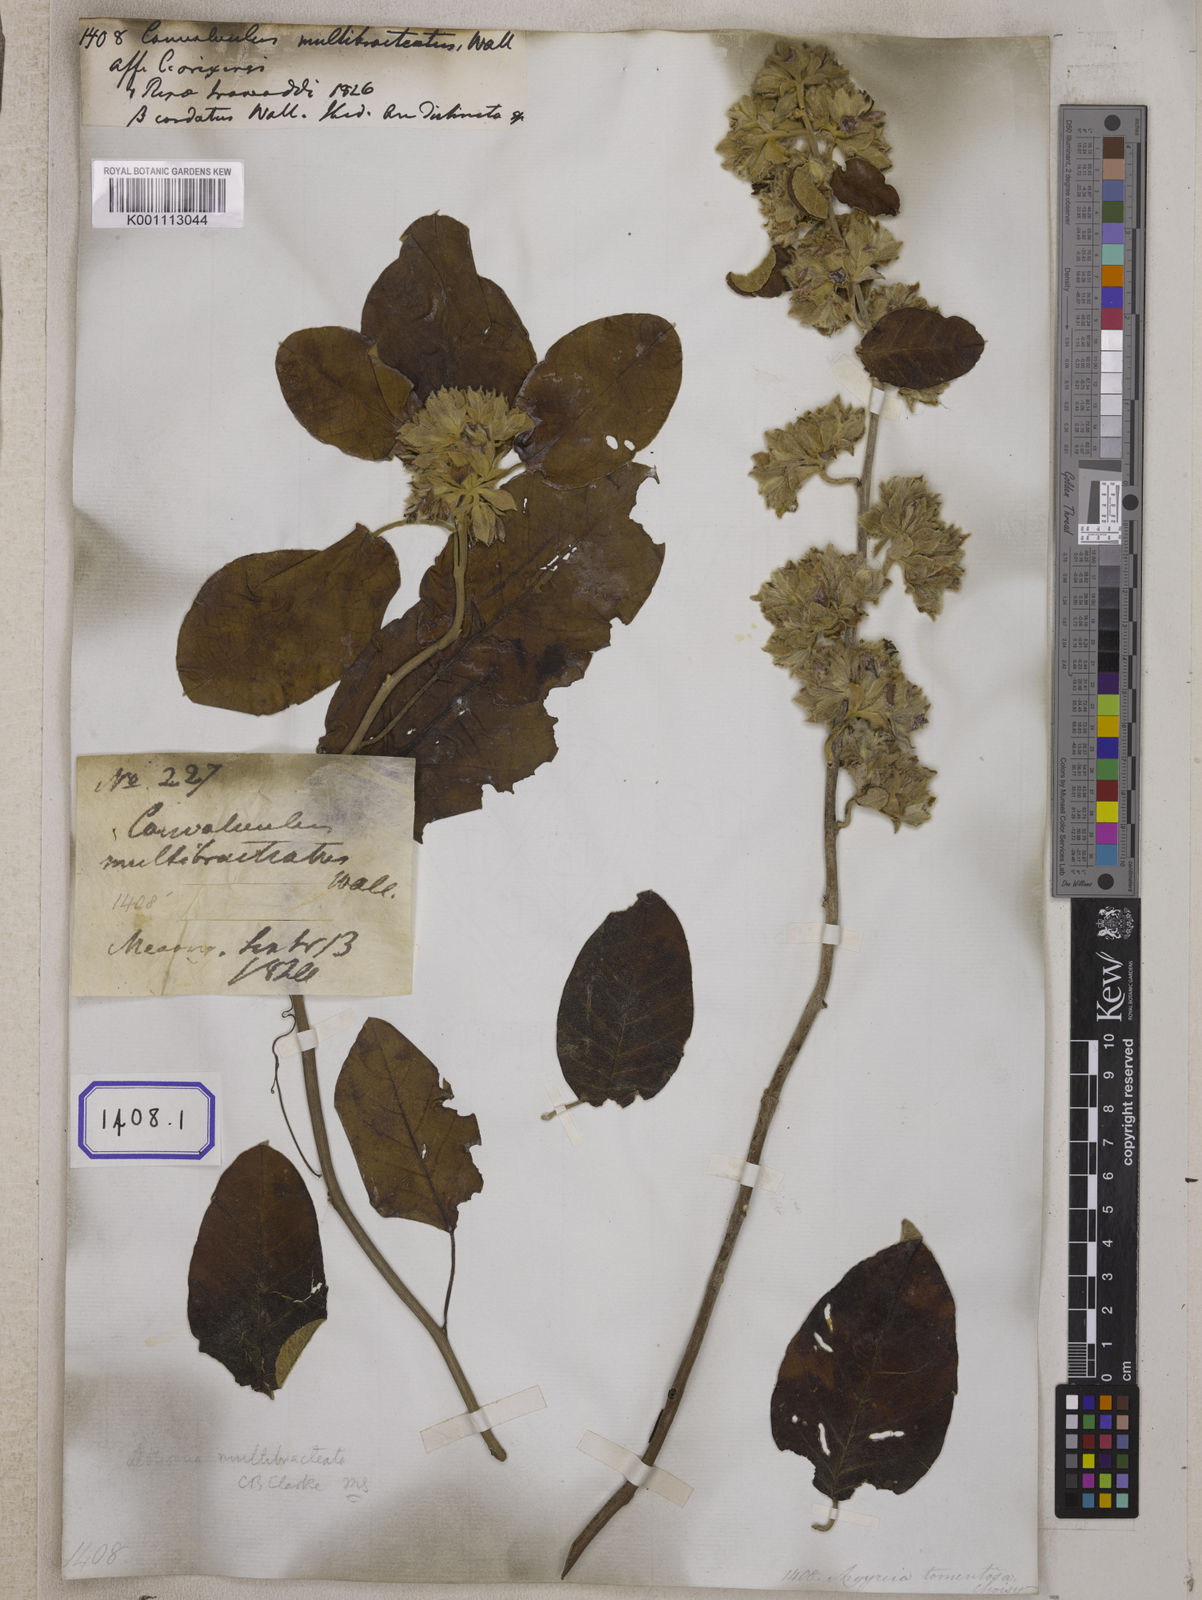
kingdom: Plantae
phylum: Tracheophyta
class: Magnoliopsida
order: Solanales
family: Convolvulaceae
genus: Argyreia
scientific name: Argyreia tomentosa
